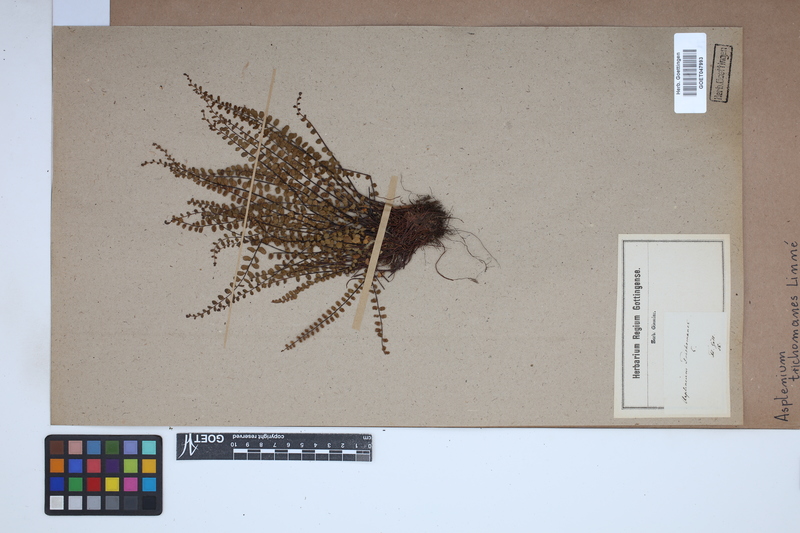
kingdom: Plantae
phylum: Tracheophyta
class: Polypodiopsida
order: Polypodiales
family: Aspleniaceae
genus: Asplenium
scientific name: Asplenium trichomanes
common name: Maidenhair spleenwort
